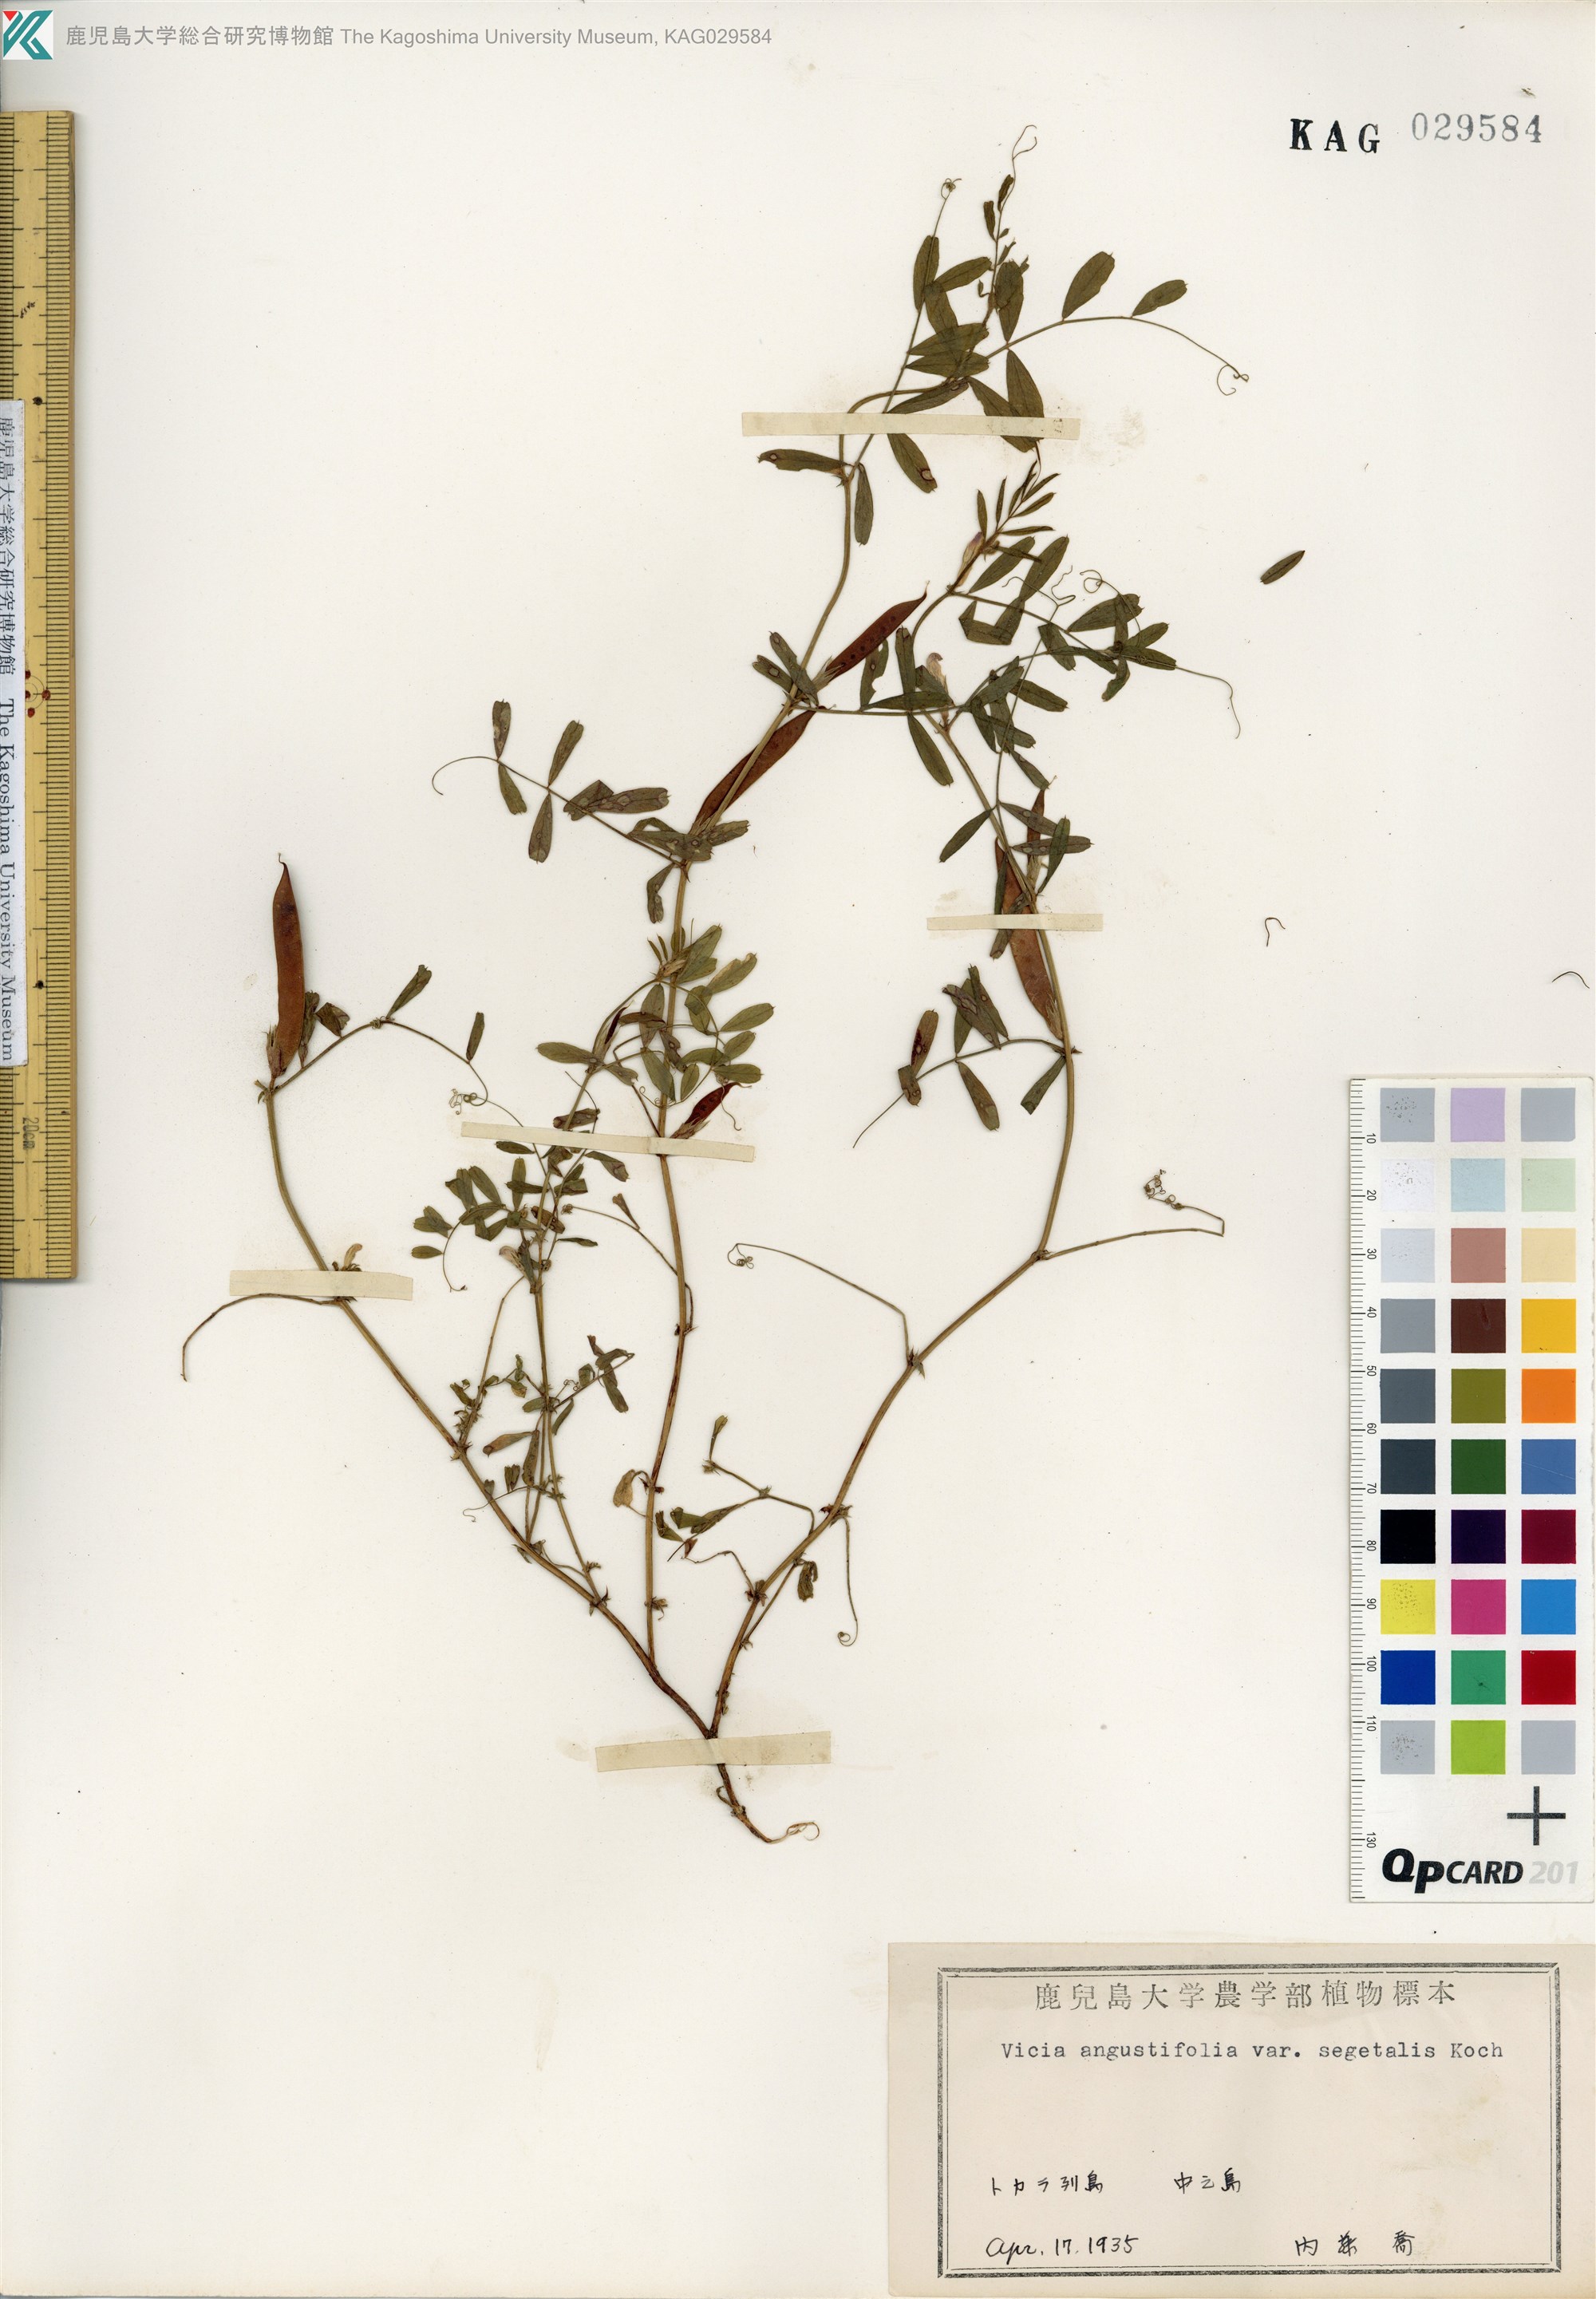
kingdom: Plantae
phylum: Tracheophyta
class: Magnoliopsida
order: Fabales
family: Fabaceae
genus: Vicia
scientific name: Vicia sativa
